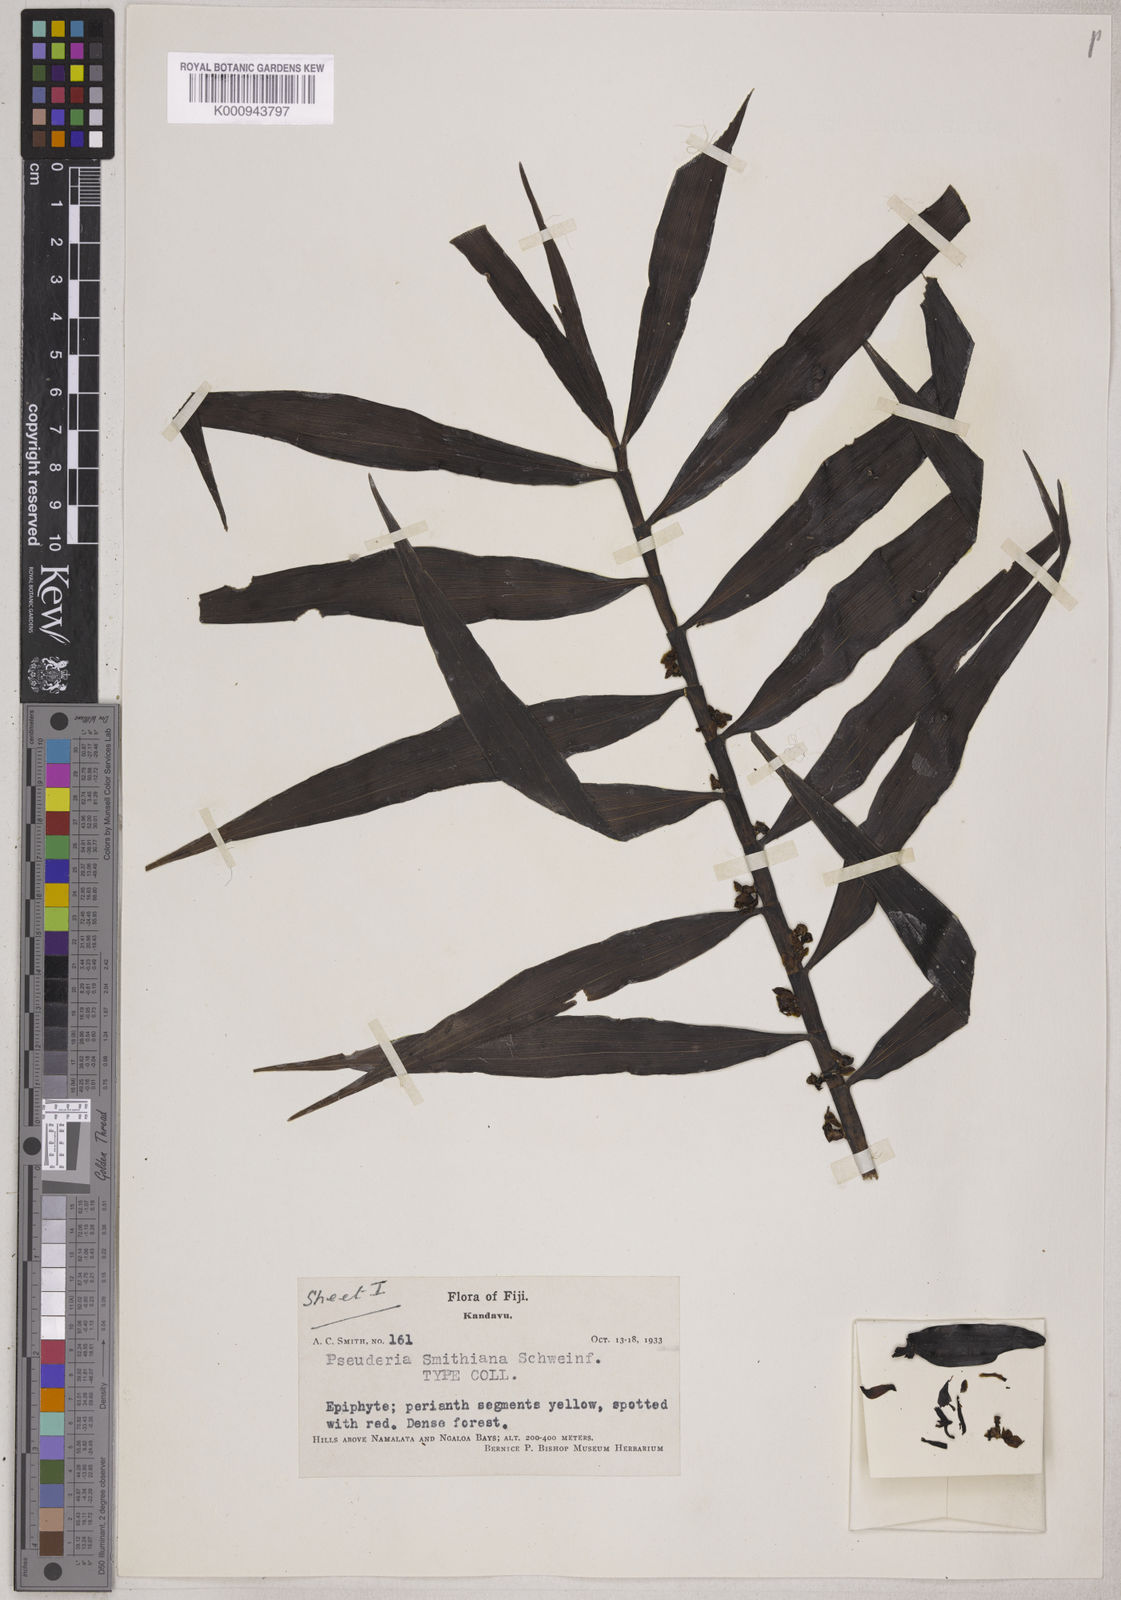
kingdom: Plantae
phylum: Tracheophyta
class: Liliopsida
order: Asparagales
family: Orchidaceae
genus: Pseuderia
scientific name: Pseuderia smithiana
